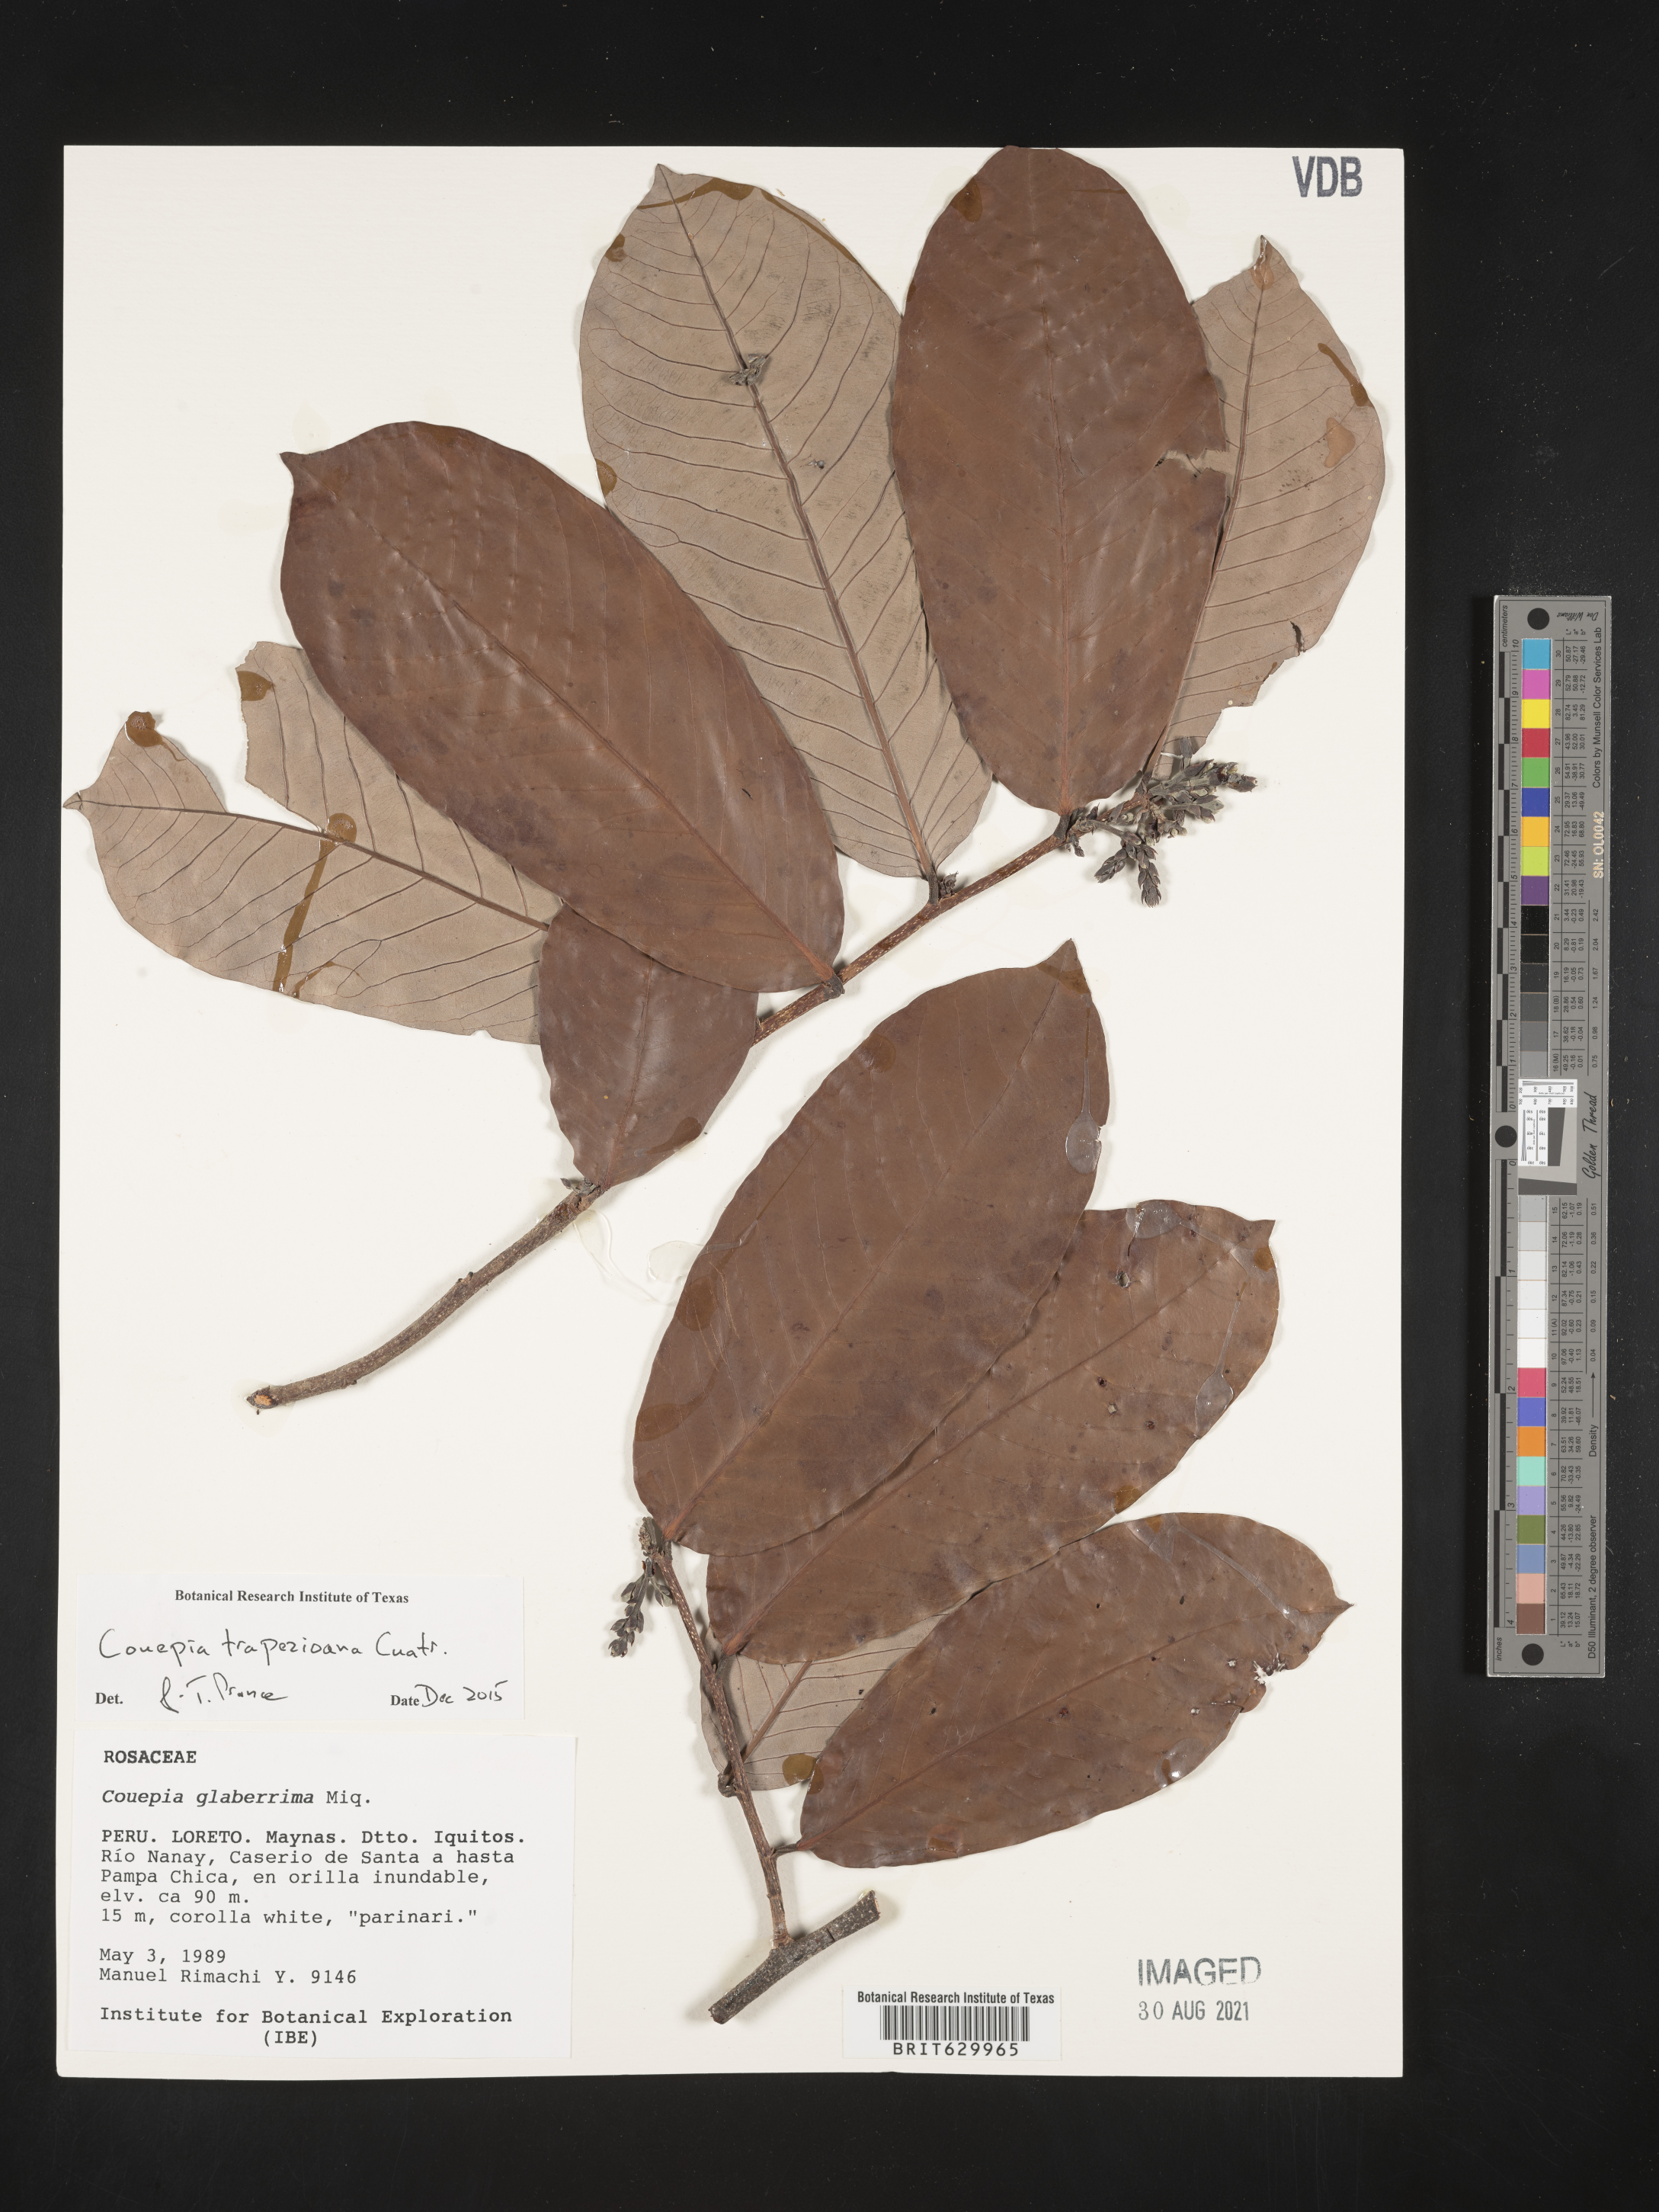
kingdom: Plantae
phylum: Tracheophyta
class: Magnoliopsida
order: Malpighiales
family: Chrysobalanaceae
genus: Couepia
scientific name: Couepia trapezioana
